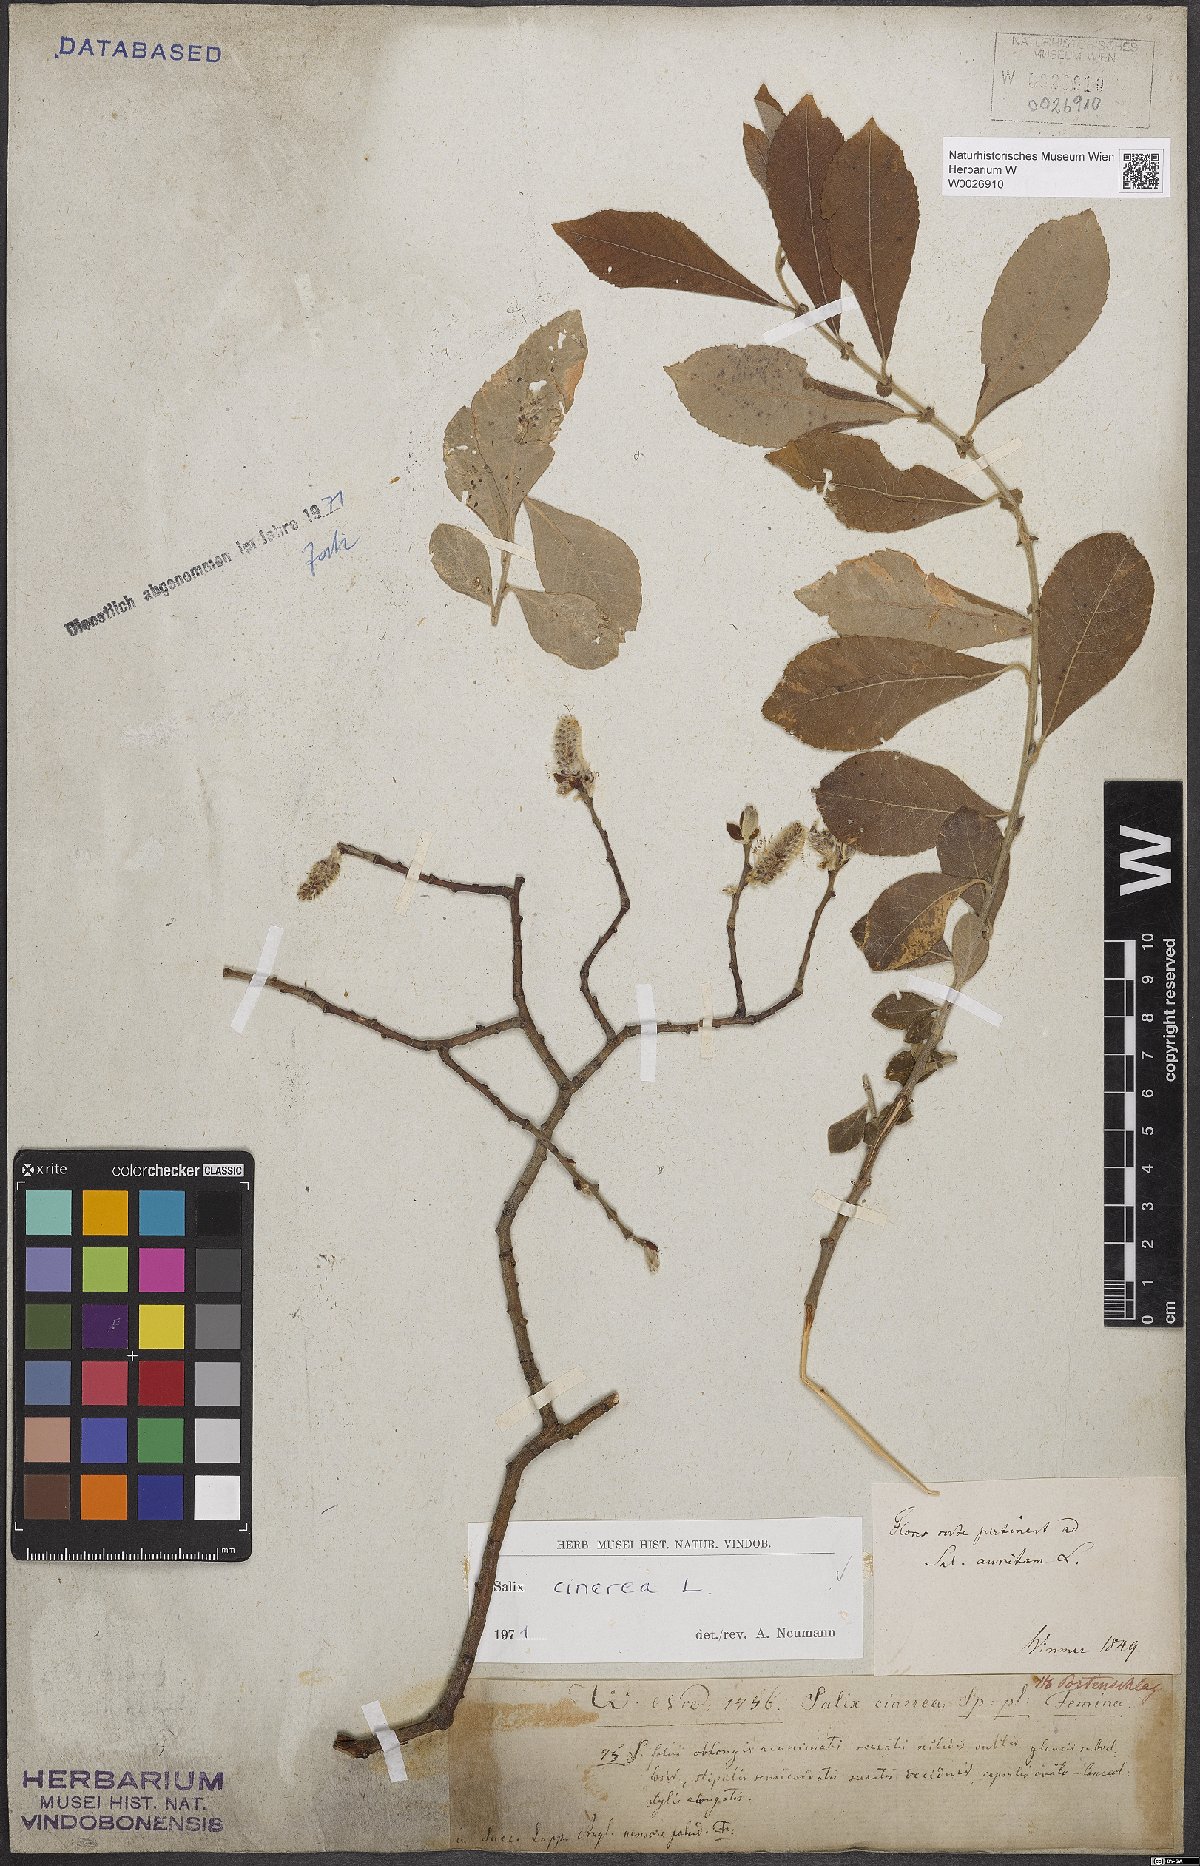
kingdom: Plantae
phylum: Tracheophyta
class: Magnoliopsida
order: Malpighiales
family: Salicaceae
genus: Salix
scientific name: Salix cinerea
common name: Common sallow
